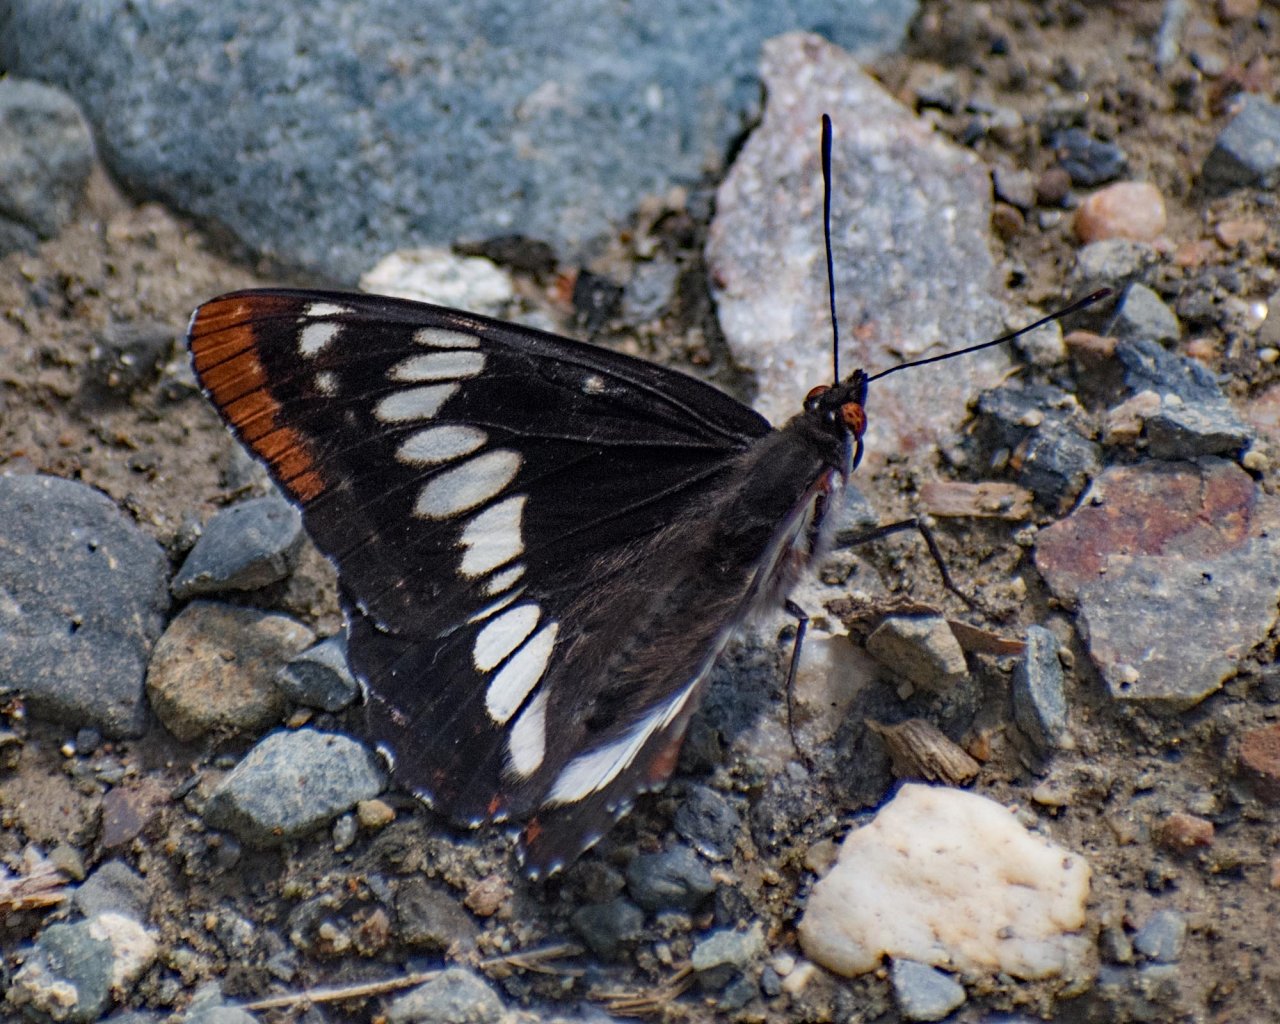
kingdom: Animalia
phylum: Arthropoda
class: Insecta
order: Lepidoptera
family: Nymphalidae
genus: Limenitis
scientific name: Limenitis lorquini
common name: Lorquin's Admiral
